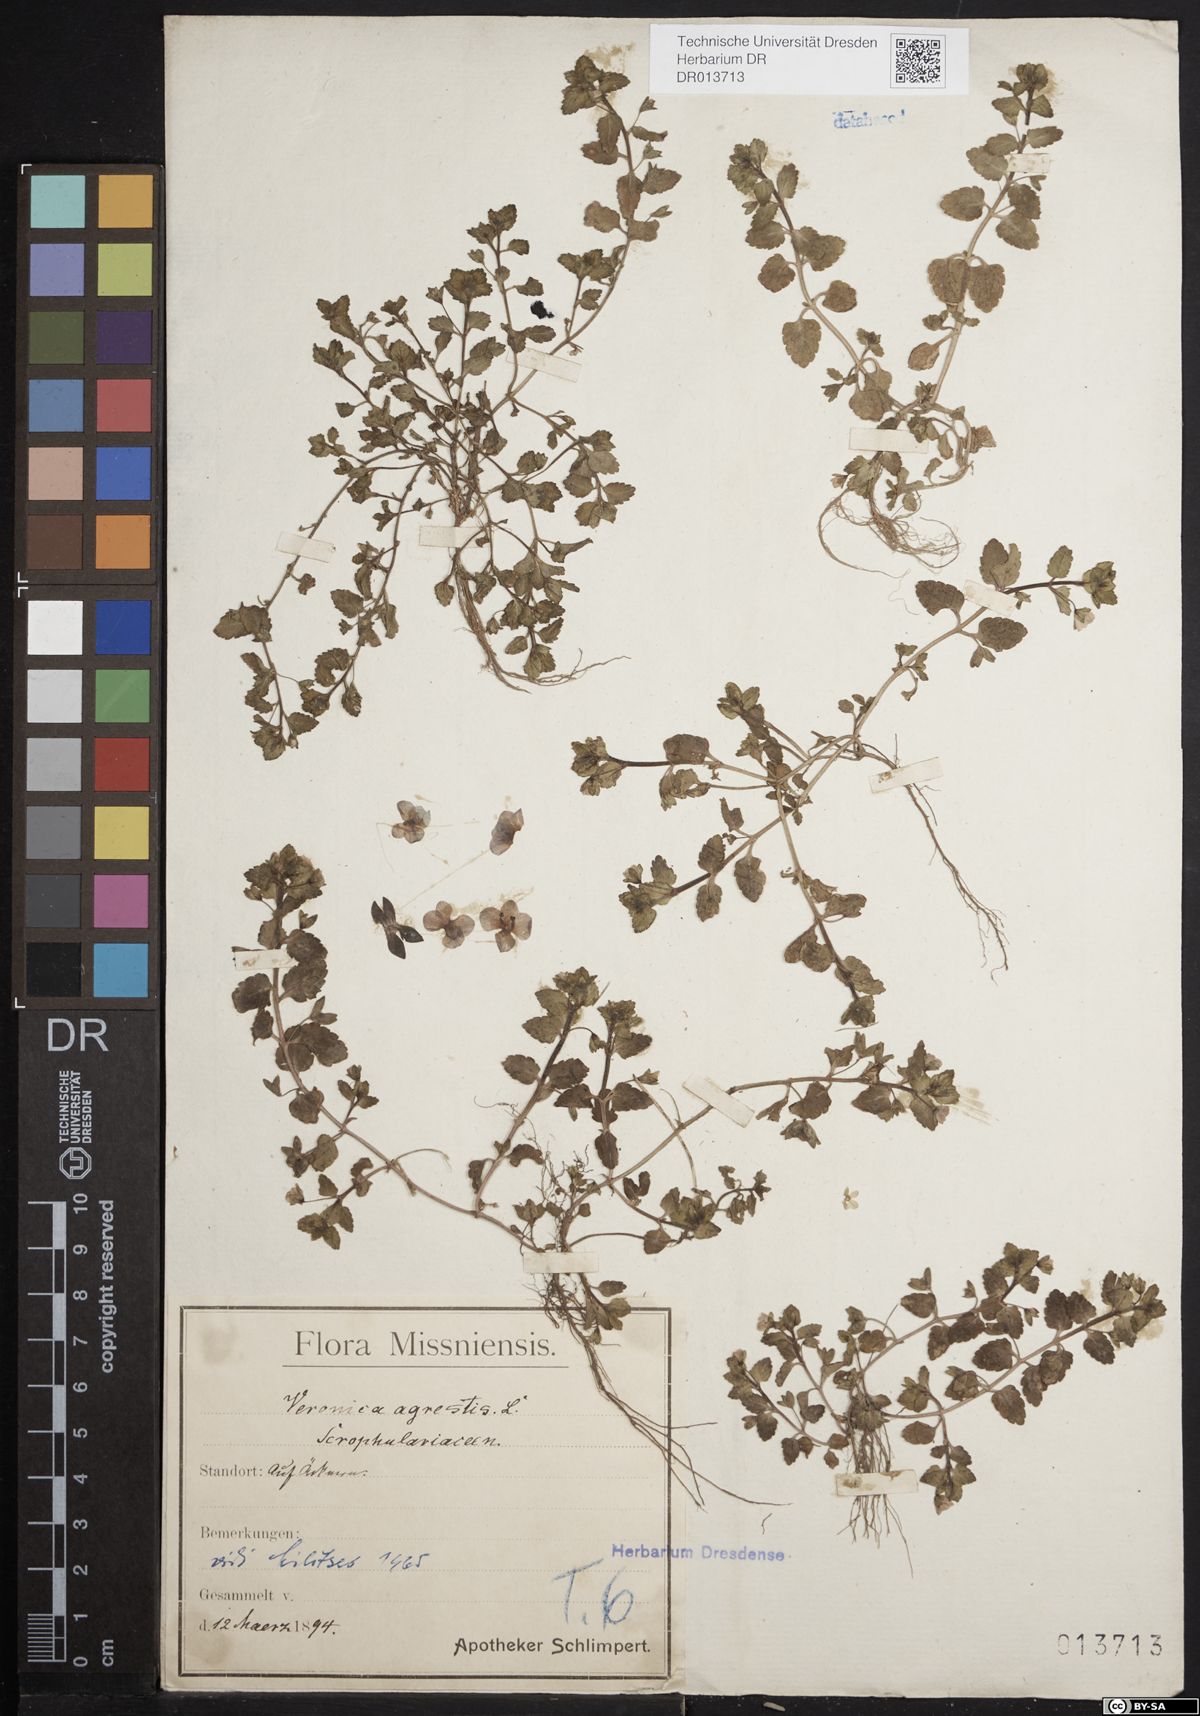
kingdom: Plantae
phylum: Tracheophyta
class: Magnoliopsida
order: Lamiales
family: Plantaginaceae
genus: Veronica
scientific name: Veronica agrestis
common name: Green field-speedwell
